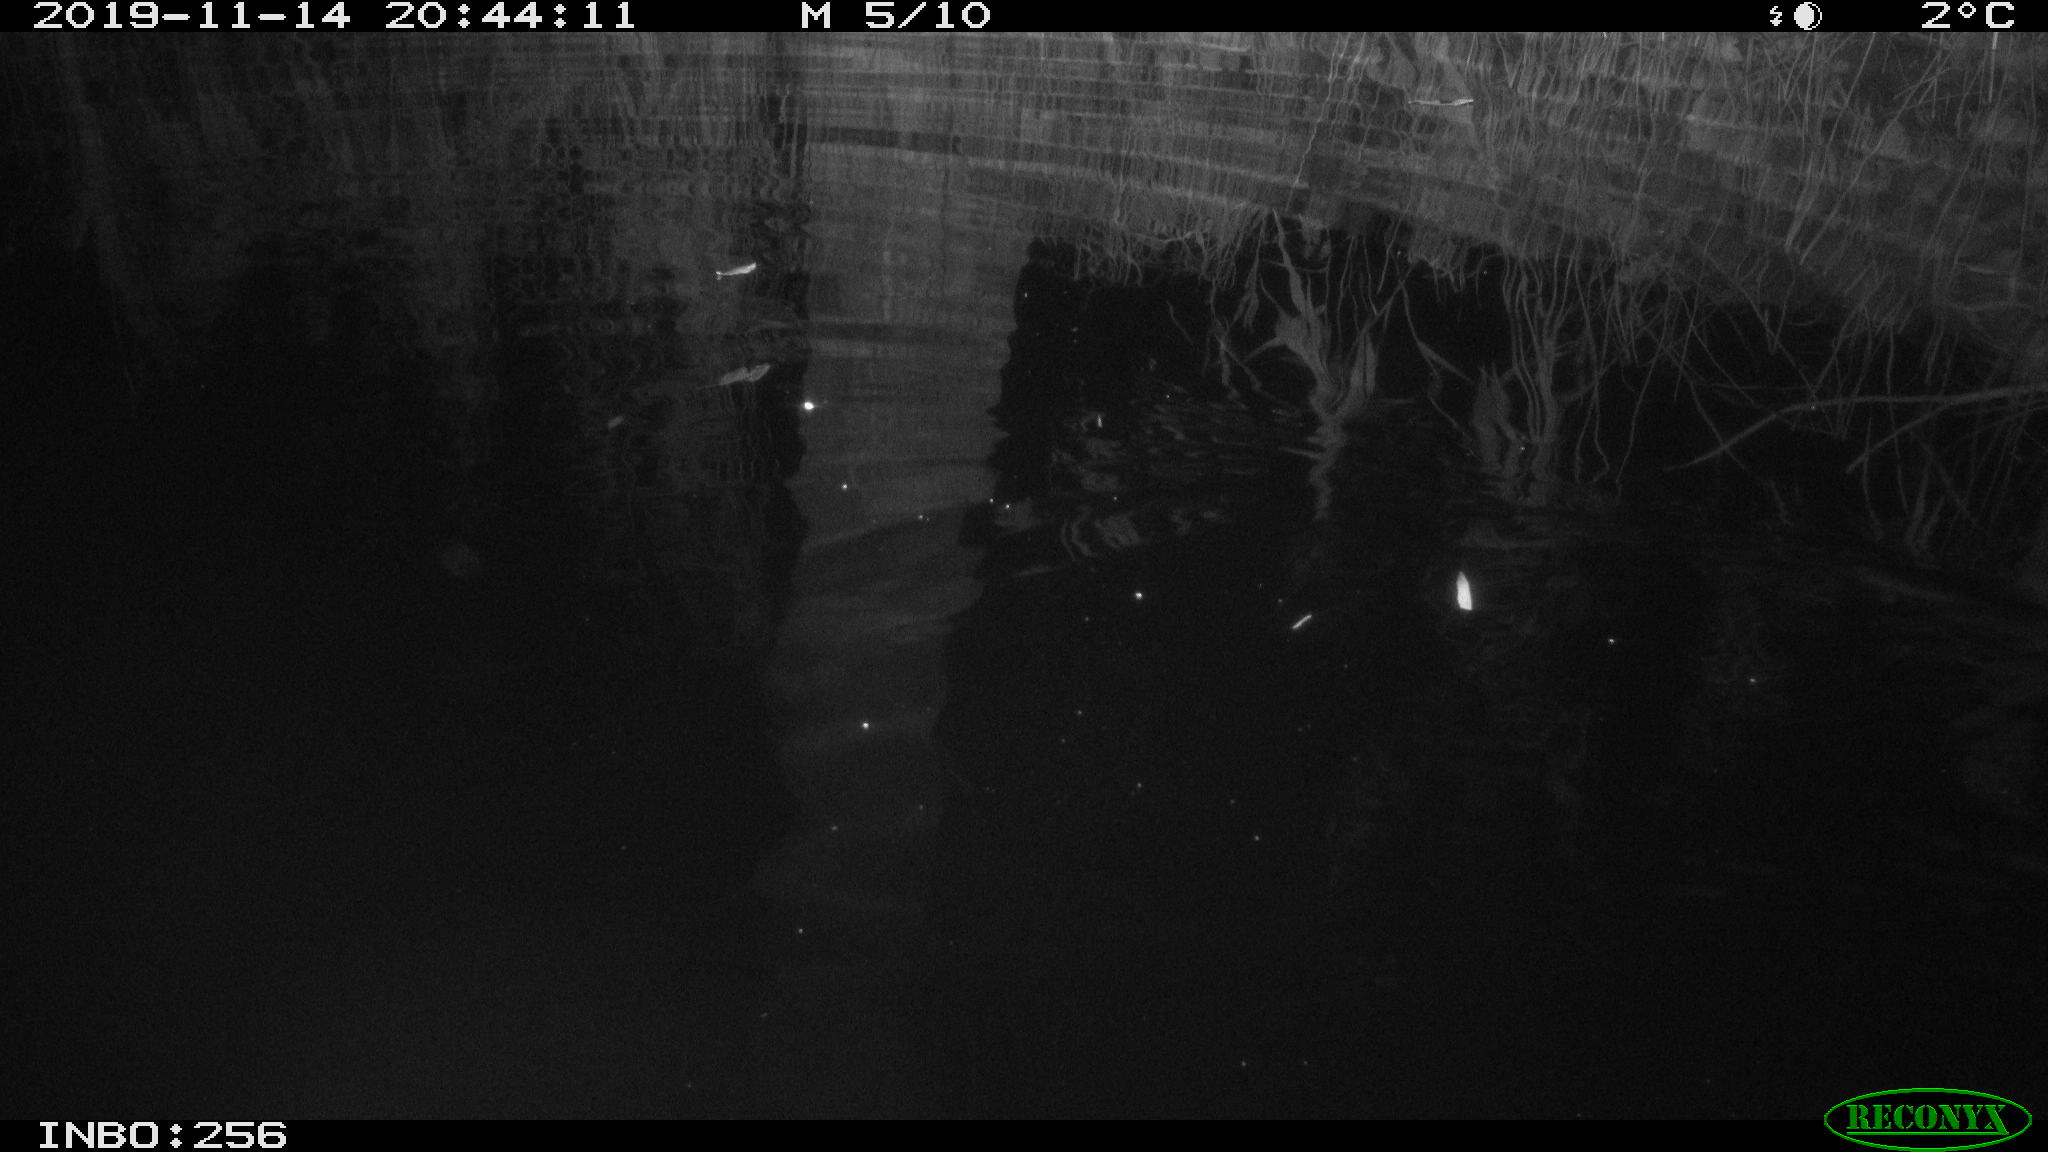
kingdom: Animalia
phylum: Chordata
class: Mammalia
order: Rodentia
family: Muridae
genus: Rattus
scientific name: Rattus norvegicus
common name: Brown rat
